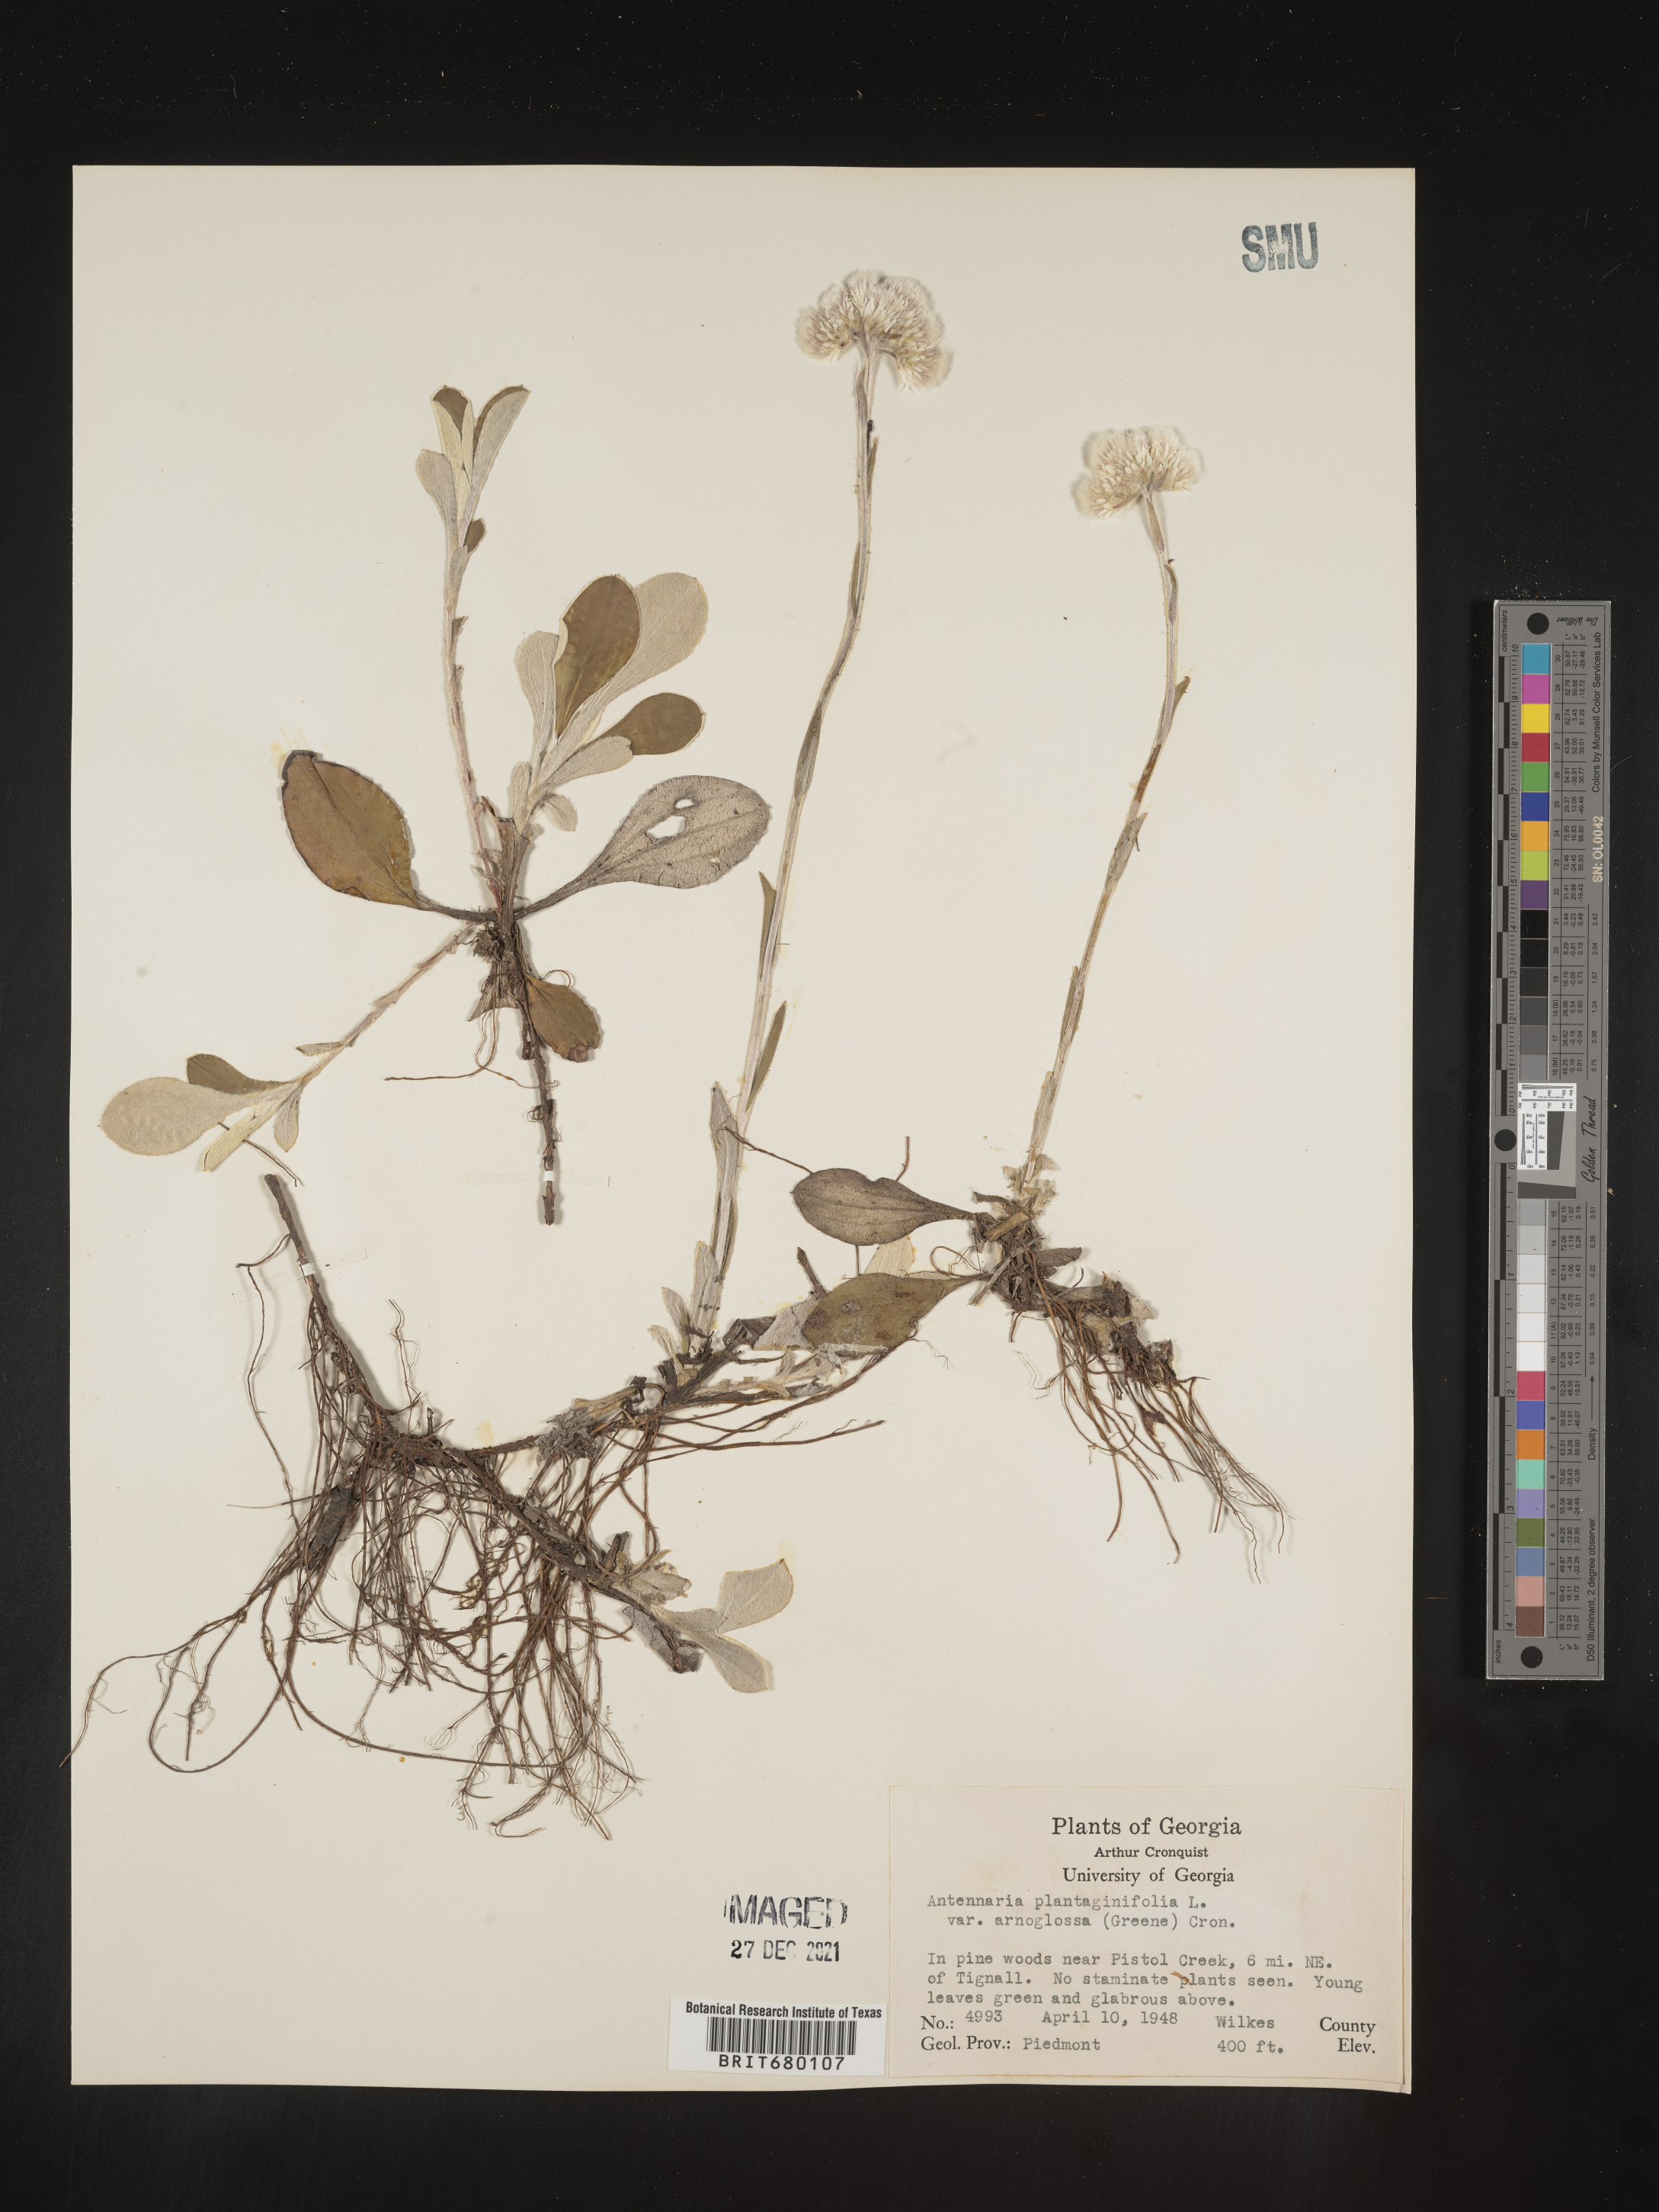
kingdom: Plantae
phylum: Tracheophyta
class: Magnoliopsida
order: Asterales
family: Asteraceae
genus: Antennaria
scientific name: Antennaria plantaginifolia
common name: Plantain-leaved pussytoes
